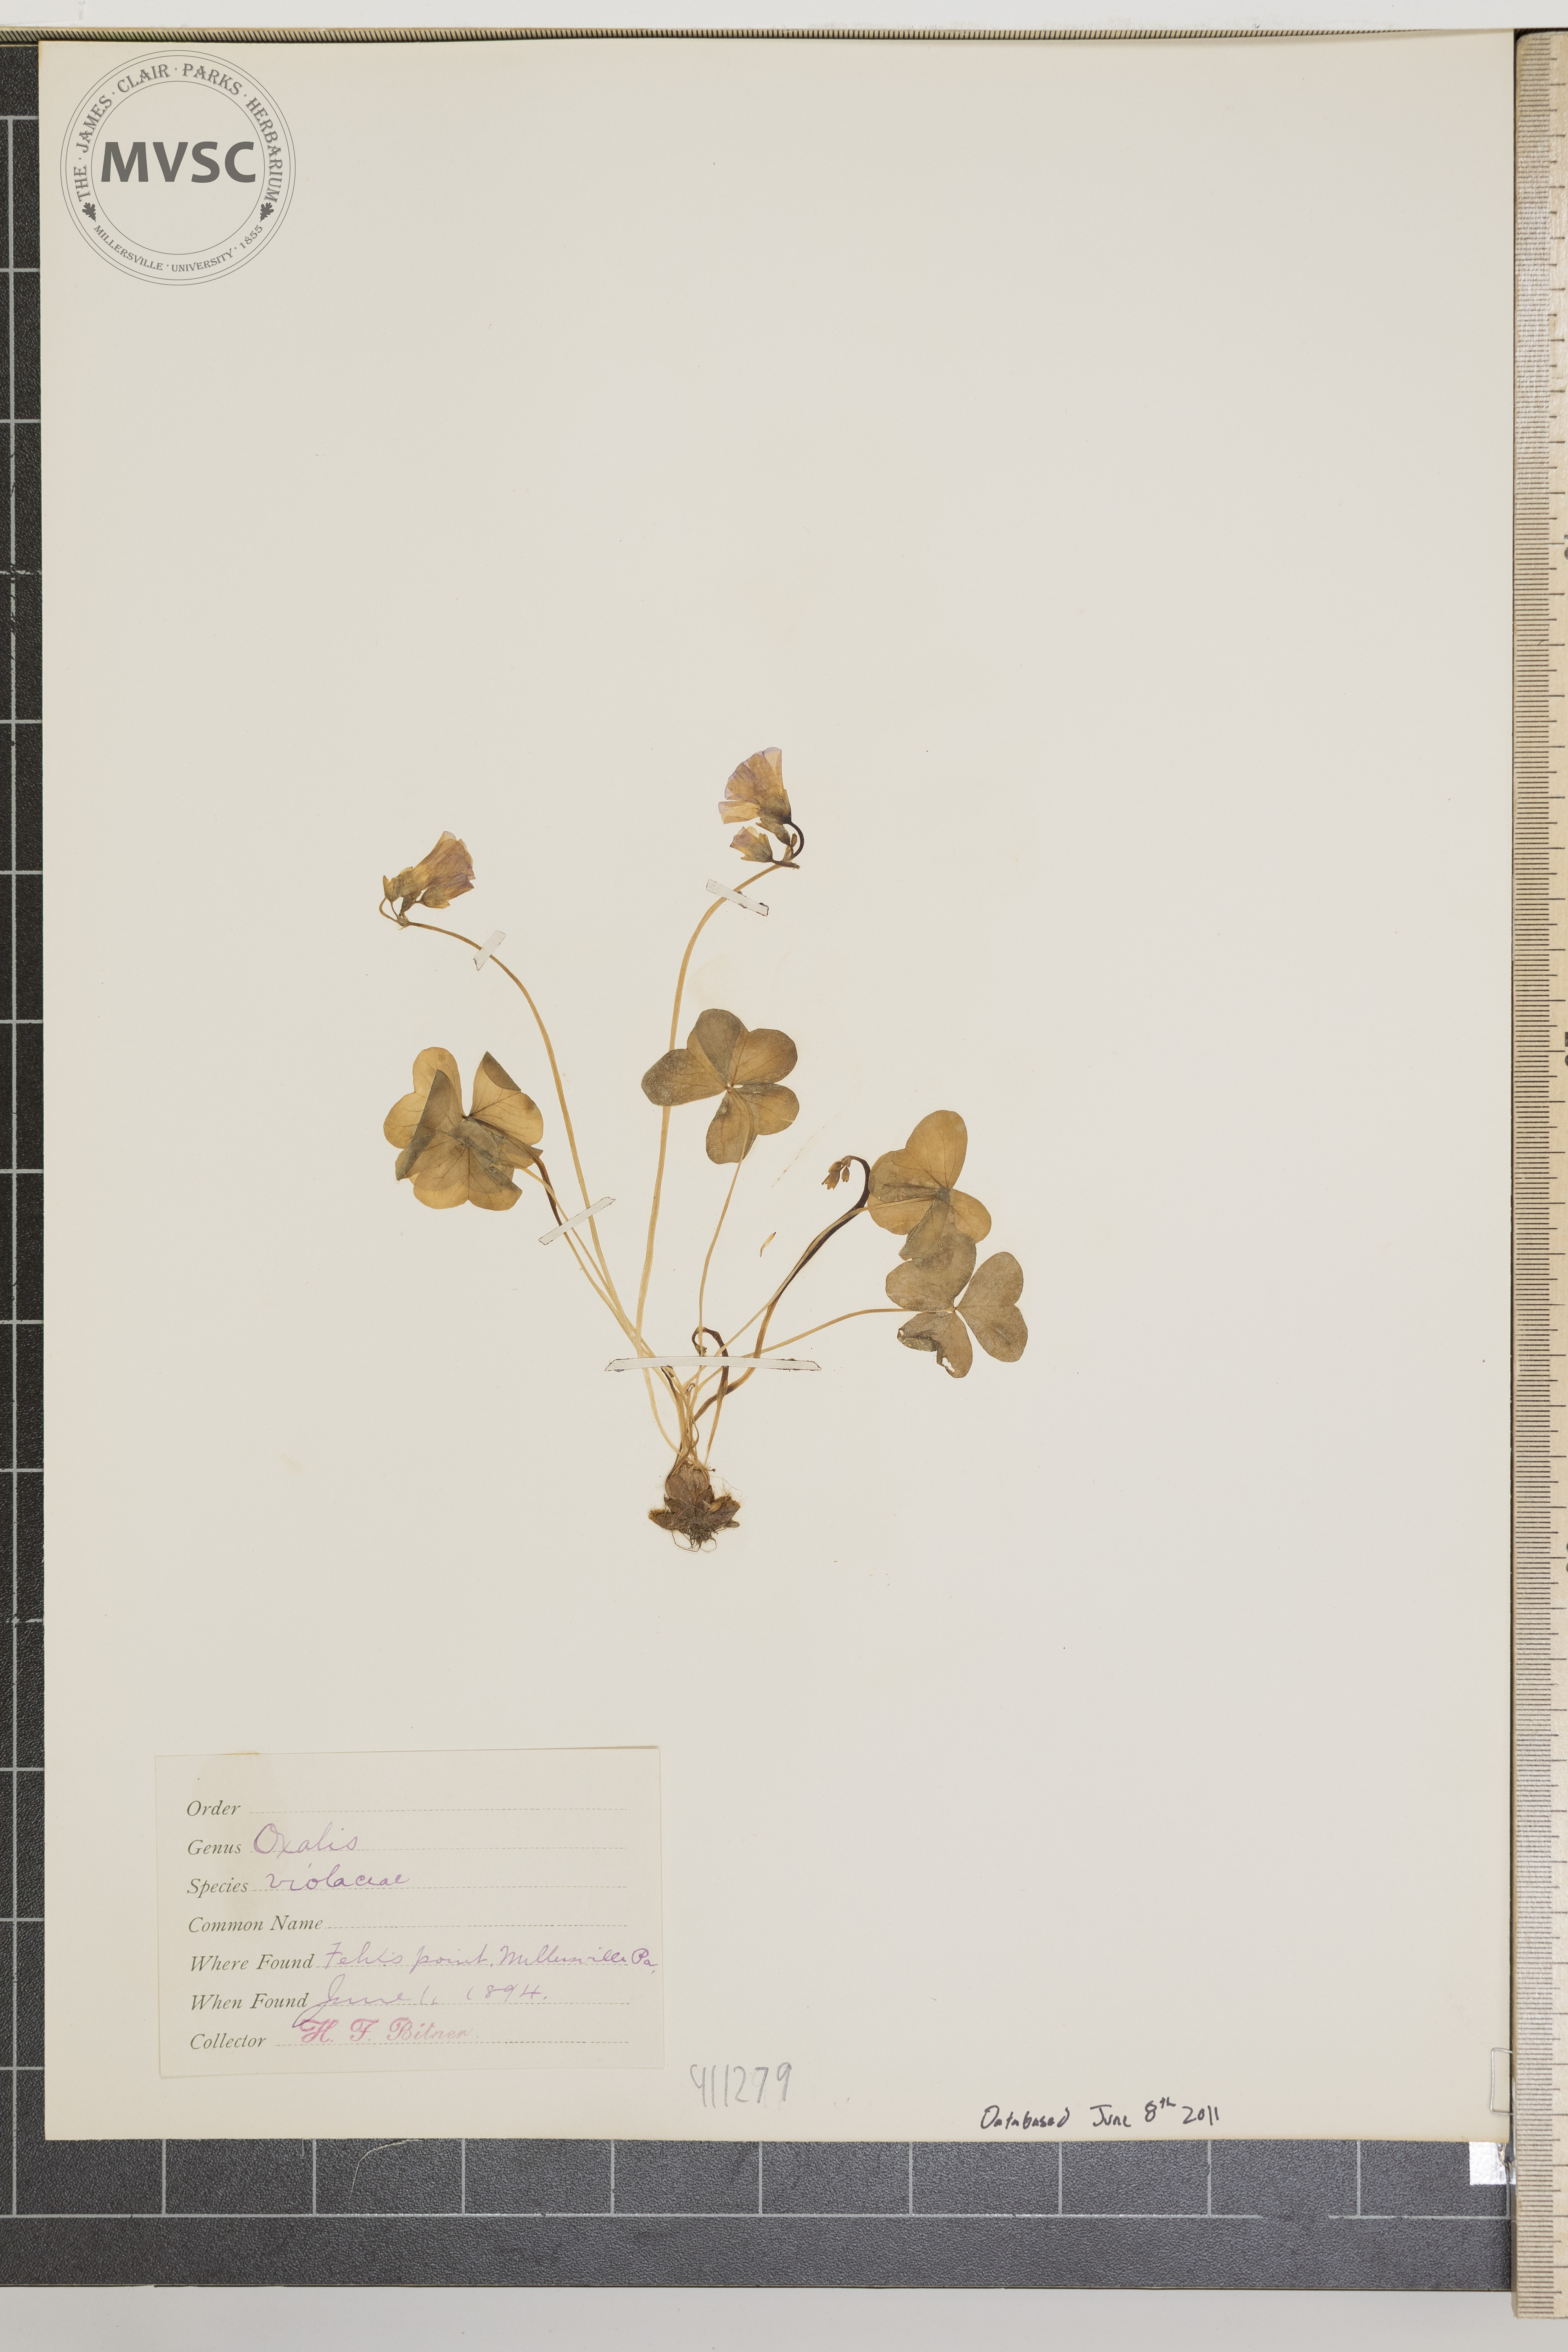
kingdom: Plantae
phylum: Tracheophyta
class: Magnoliopsida
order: Oxalidales
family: Oxalidaceae
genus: Oxalis
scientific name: Oxalis violacea
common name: Violet wood-sorrel
